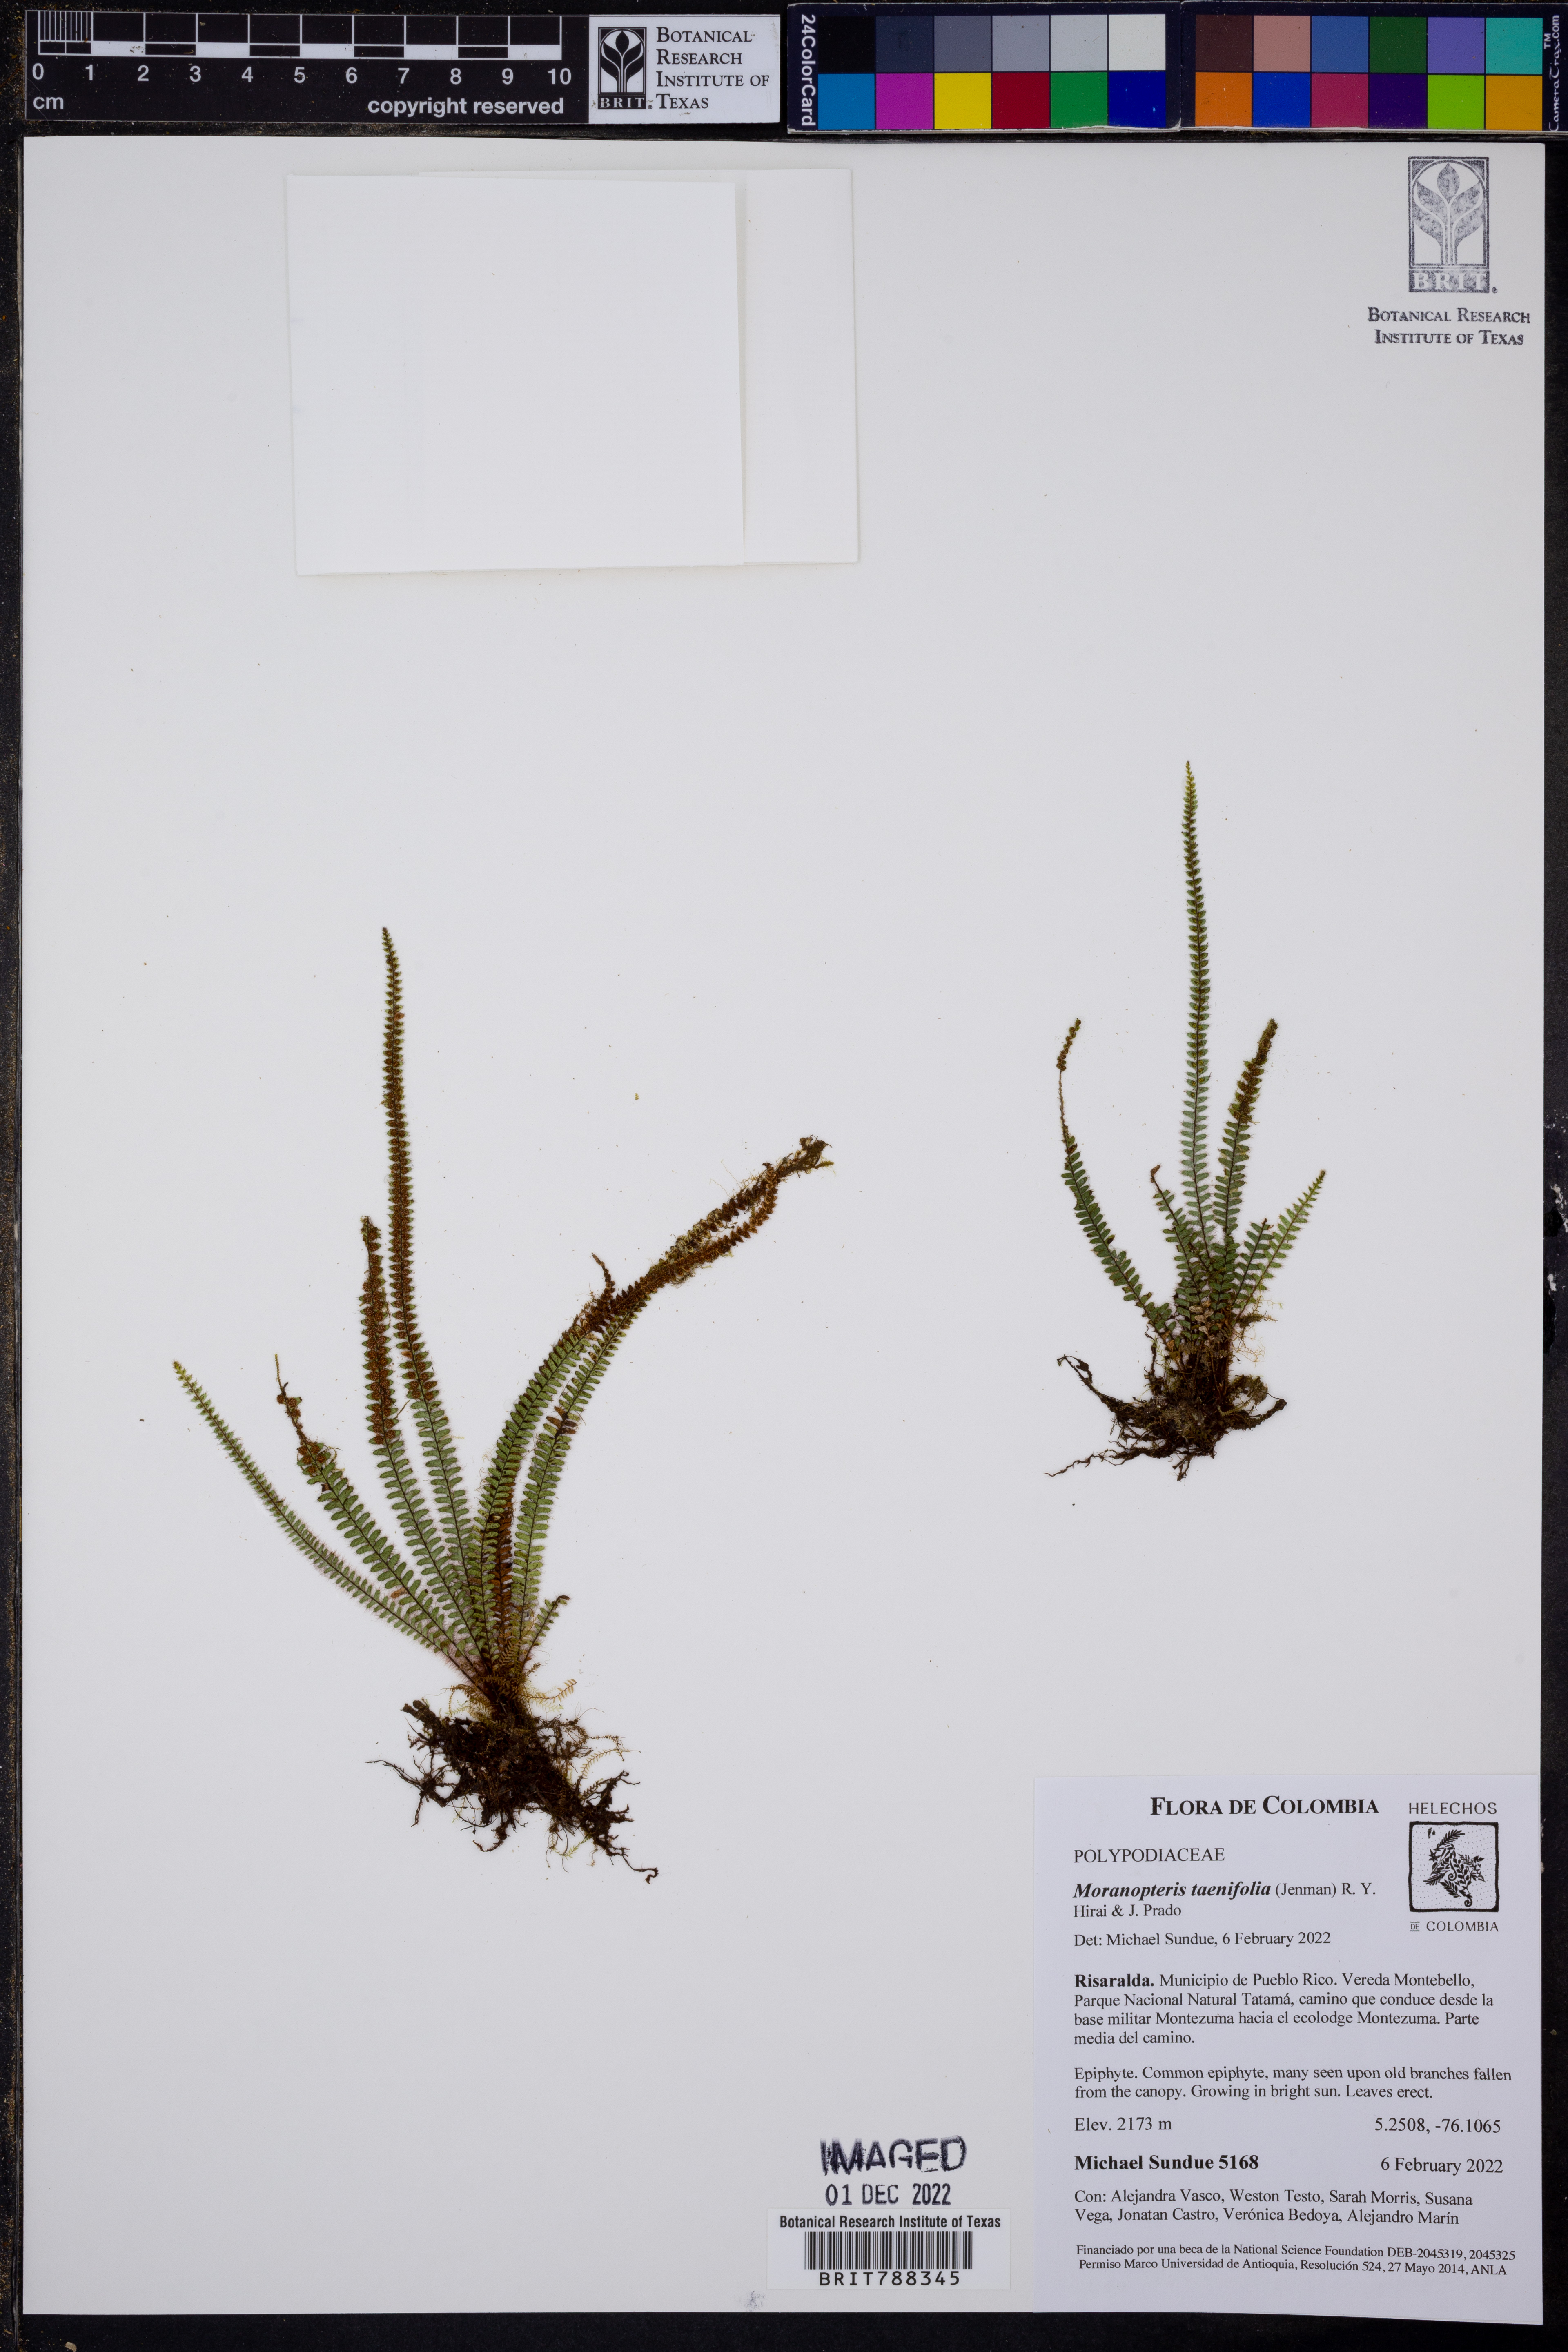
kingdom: Plantae
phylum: Tracheophyta
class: Polypodiopsida
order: Polypodiales
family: Polypodiaceae
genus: Moranopteris
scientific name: Moranopteris taenifolia
